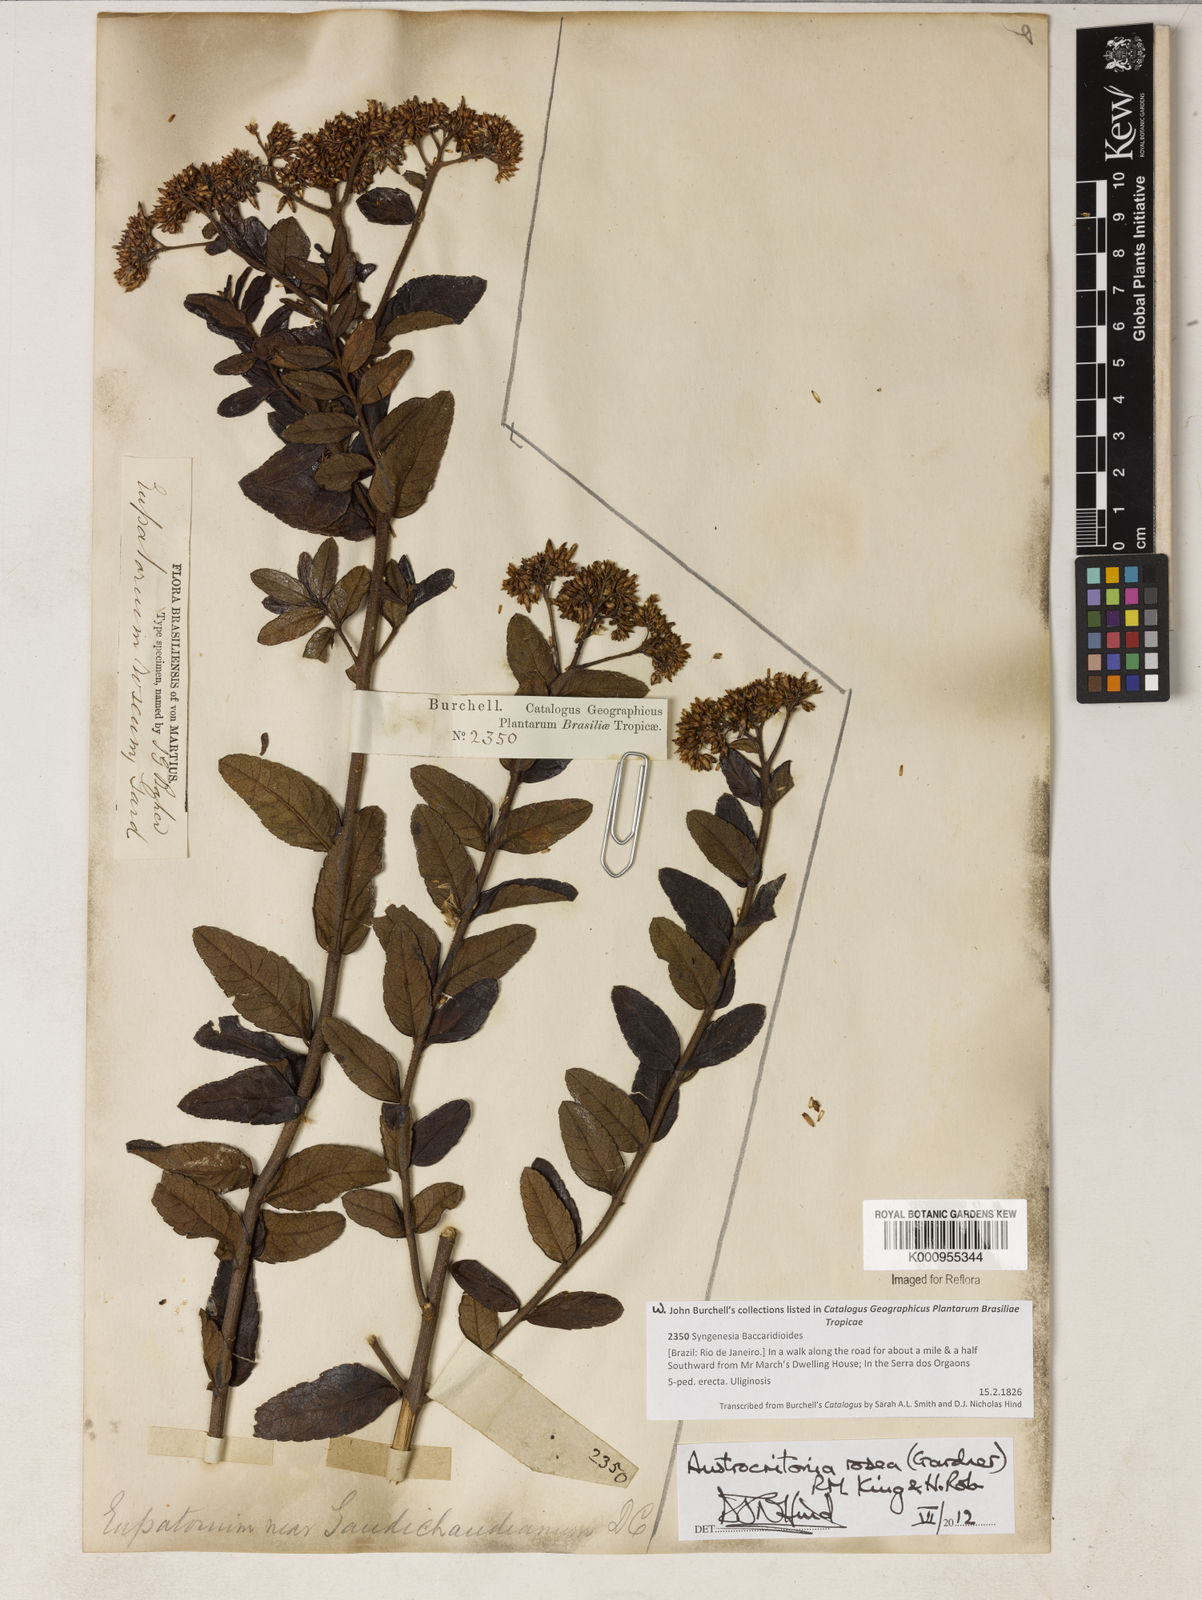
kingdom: Plantae
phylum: Tracheophyta
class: Magnoliopsida
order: Asterales
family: Asteraceae
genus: Austrocritonia
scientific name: Austrocritonia rosea
